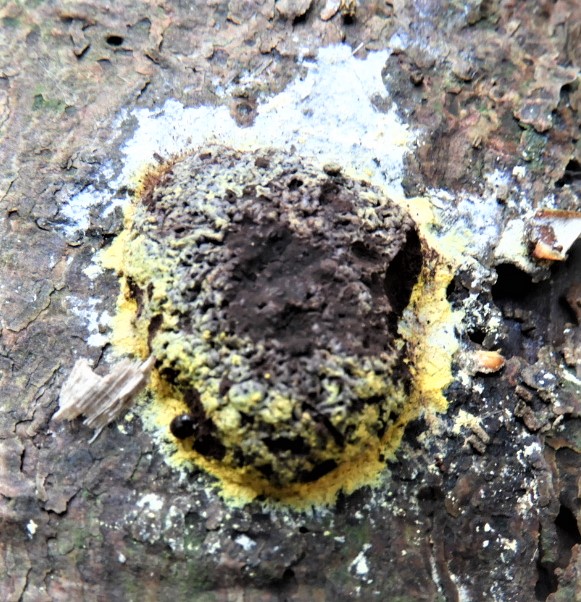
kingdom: Protozoa
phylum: Mycetozoa
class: Myxomycetes
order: Physarales
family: Physaraceae
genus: Fuligo
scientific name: Fuligo septica
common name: gul troldsmør
